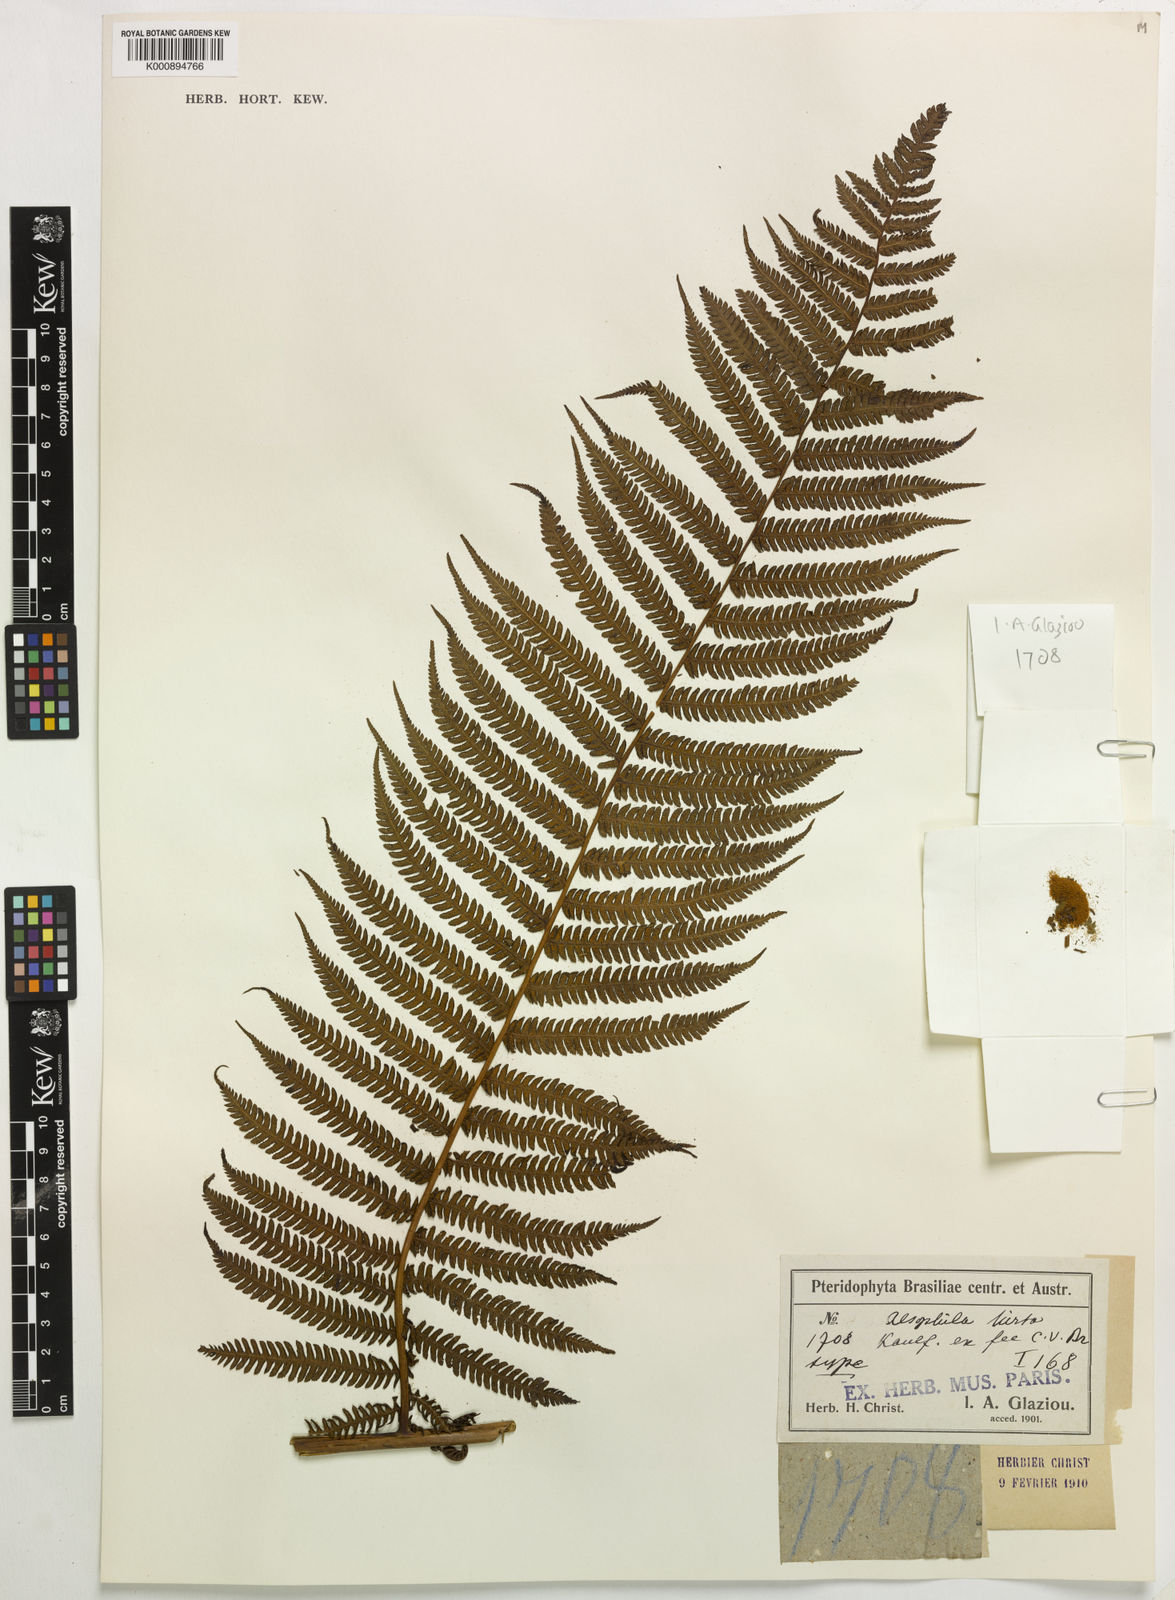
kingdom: Plantae
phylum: Tracheophyta
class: Polypodiopsida
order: Cyatheales
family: Cyatheaceae
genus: Cyathea
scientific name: Cyathea armata
